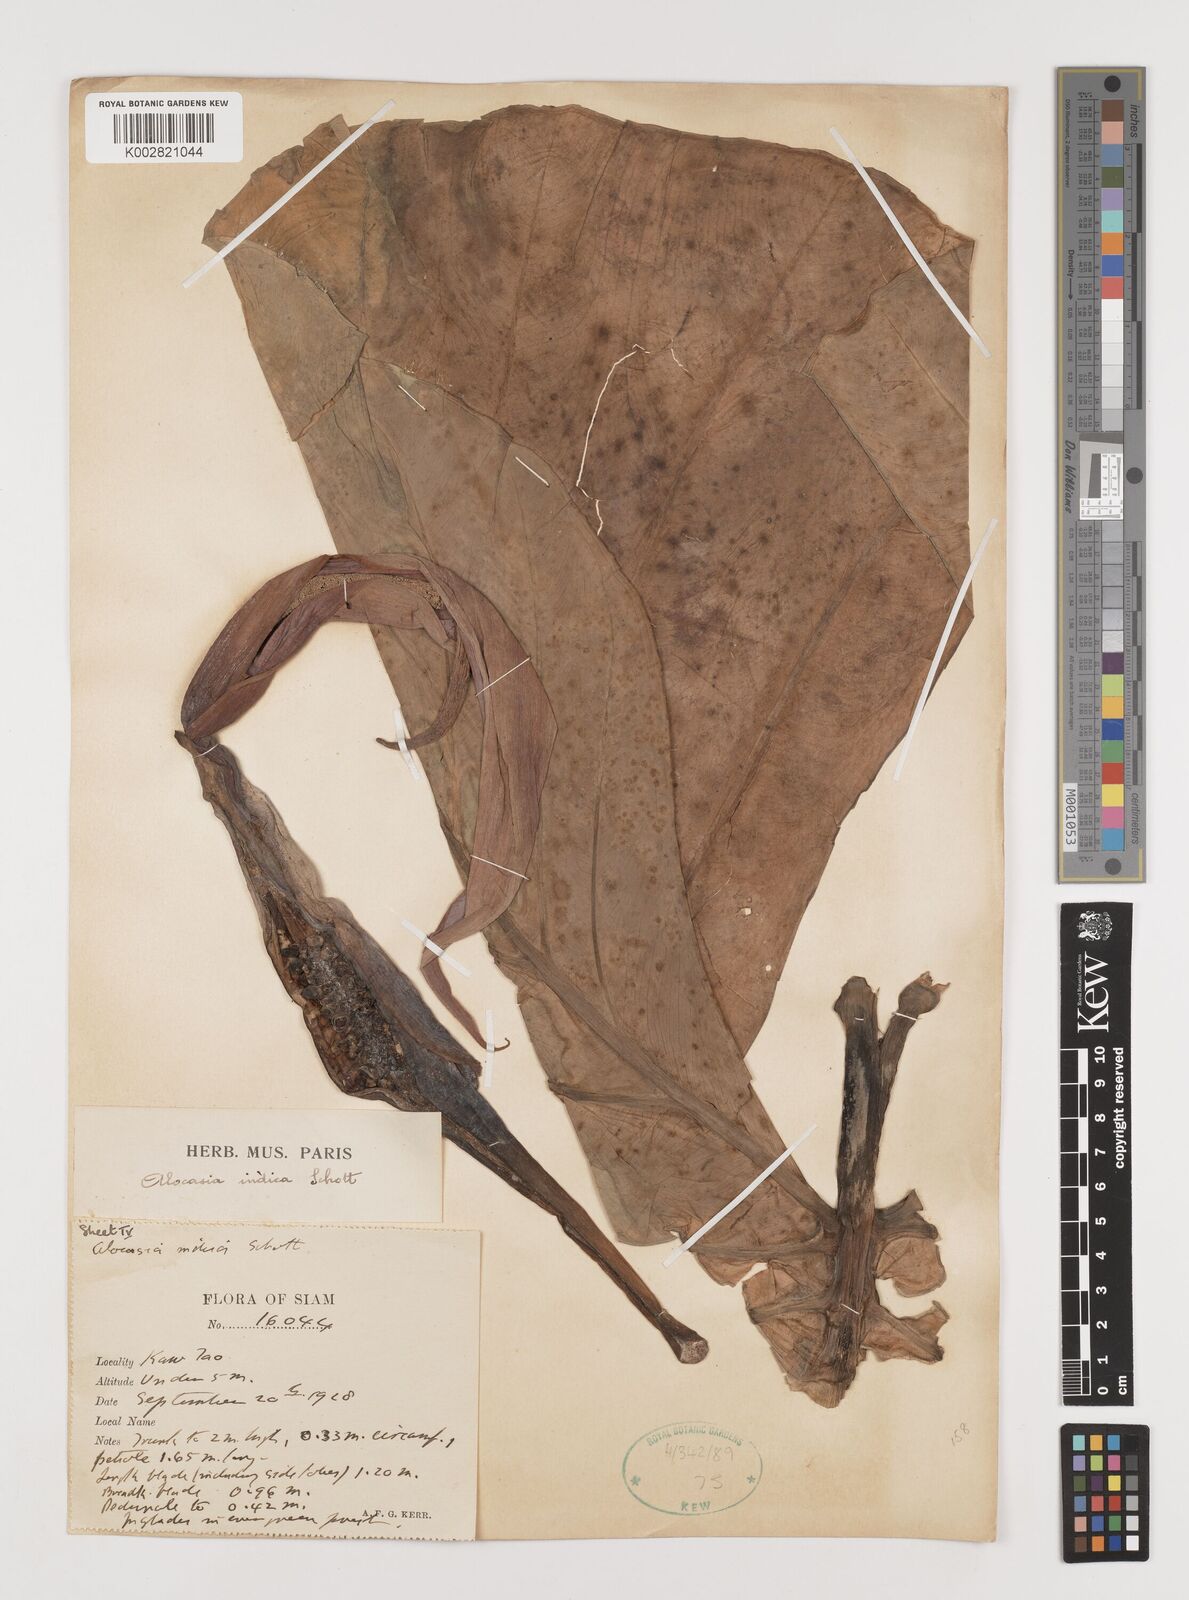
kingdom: Plantae
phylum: Tracheophyta
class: Liliopsida
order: Alismatales
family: Araceae
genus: Alocasia
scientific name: Alocasia macrorrhizos
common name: Giant taro
